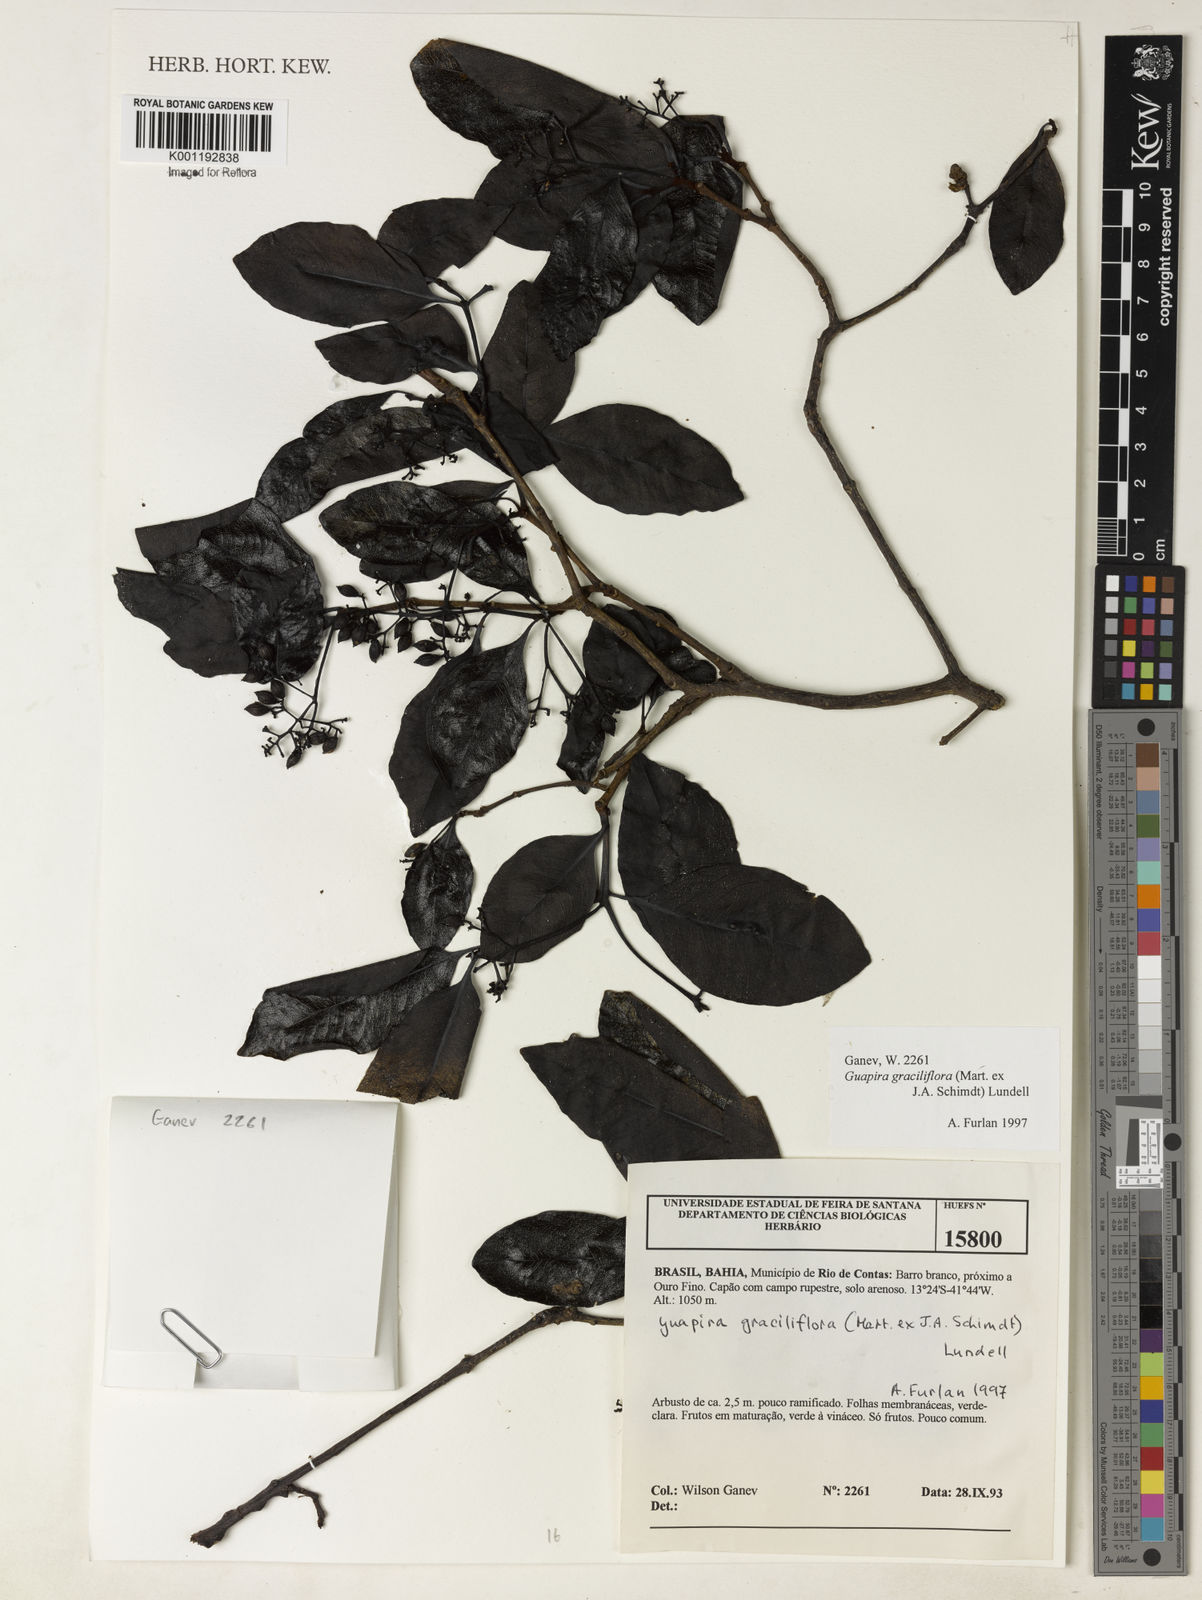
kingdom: Plantae
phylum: Tracheophyta
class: Magnoliopsida
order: Caryophyllales
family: Nyctaginaceae
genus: Guapira
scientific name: Guapira graciliflora
